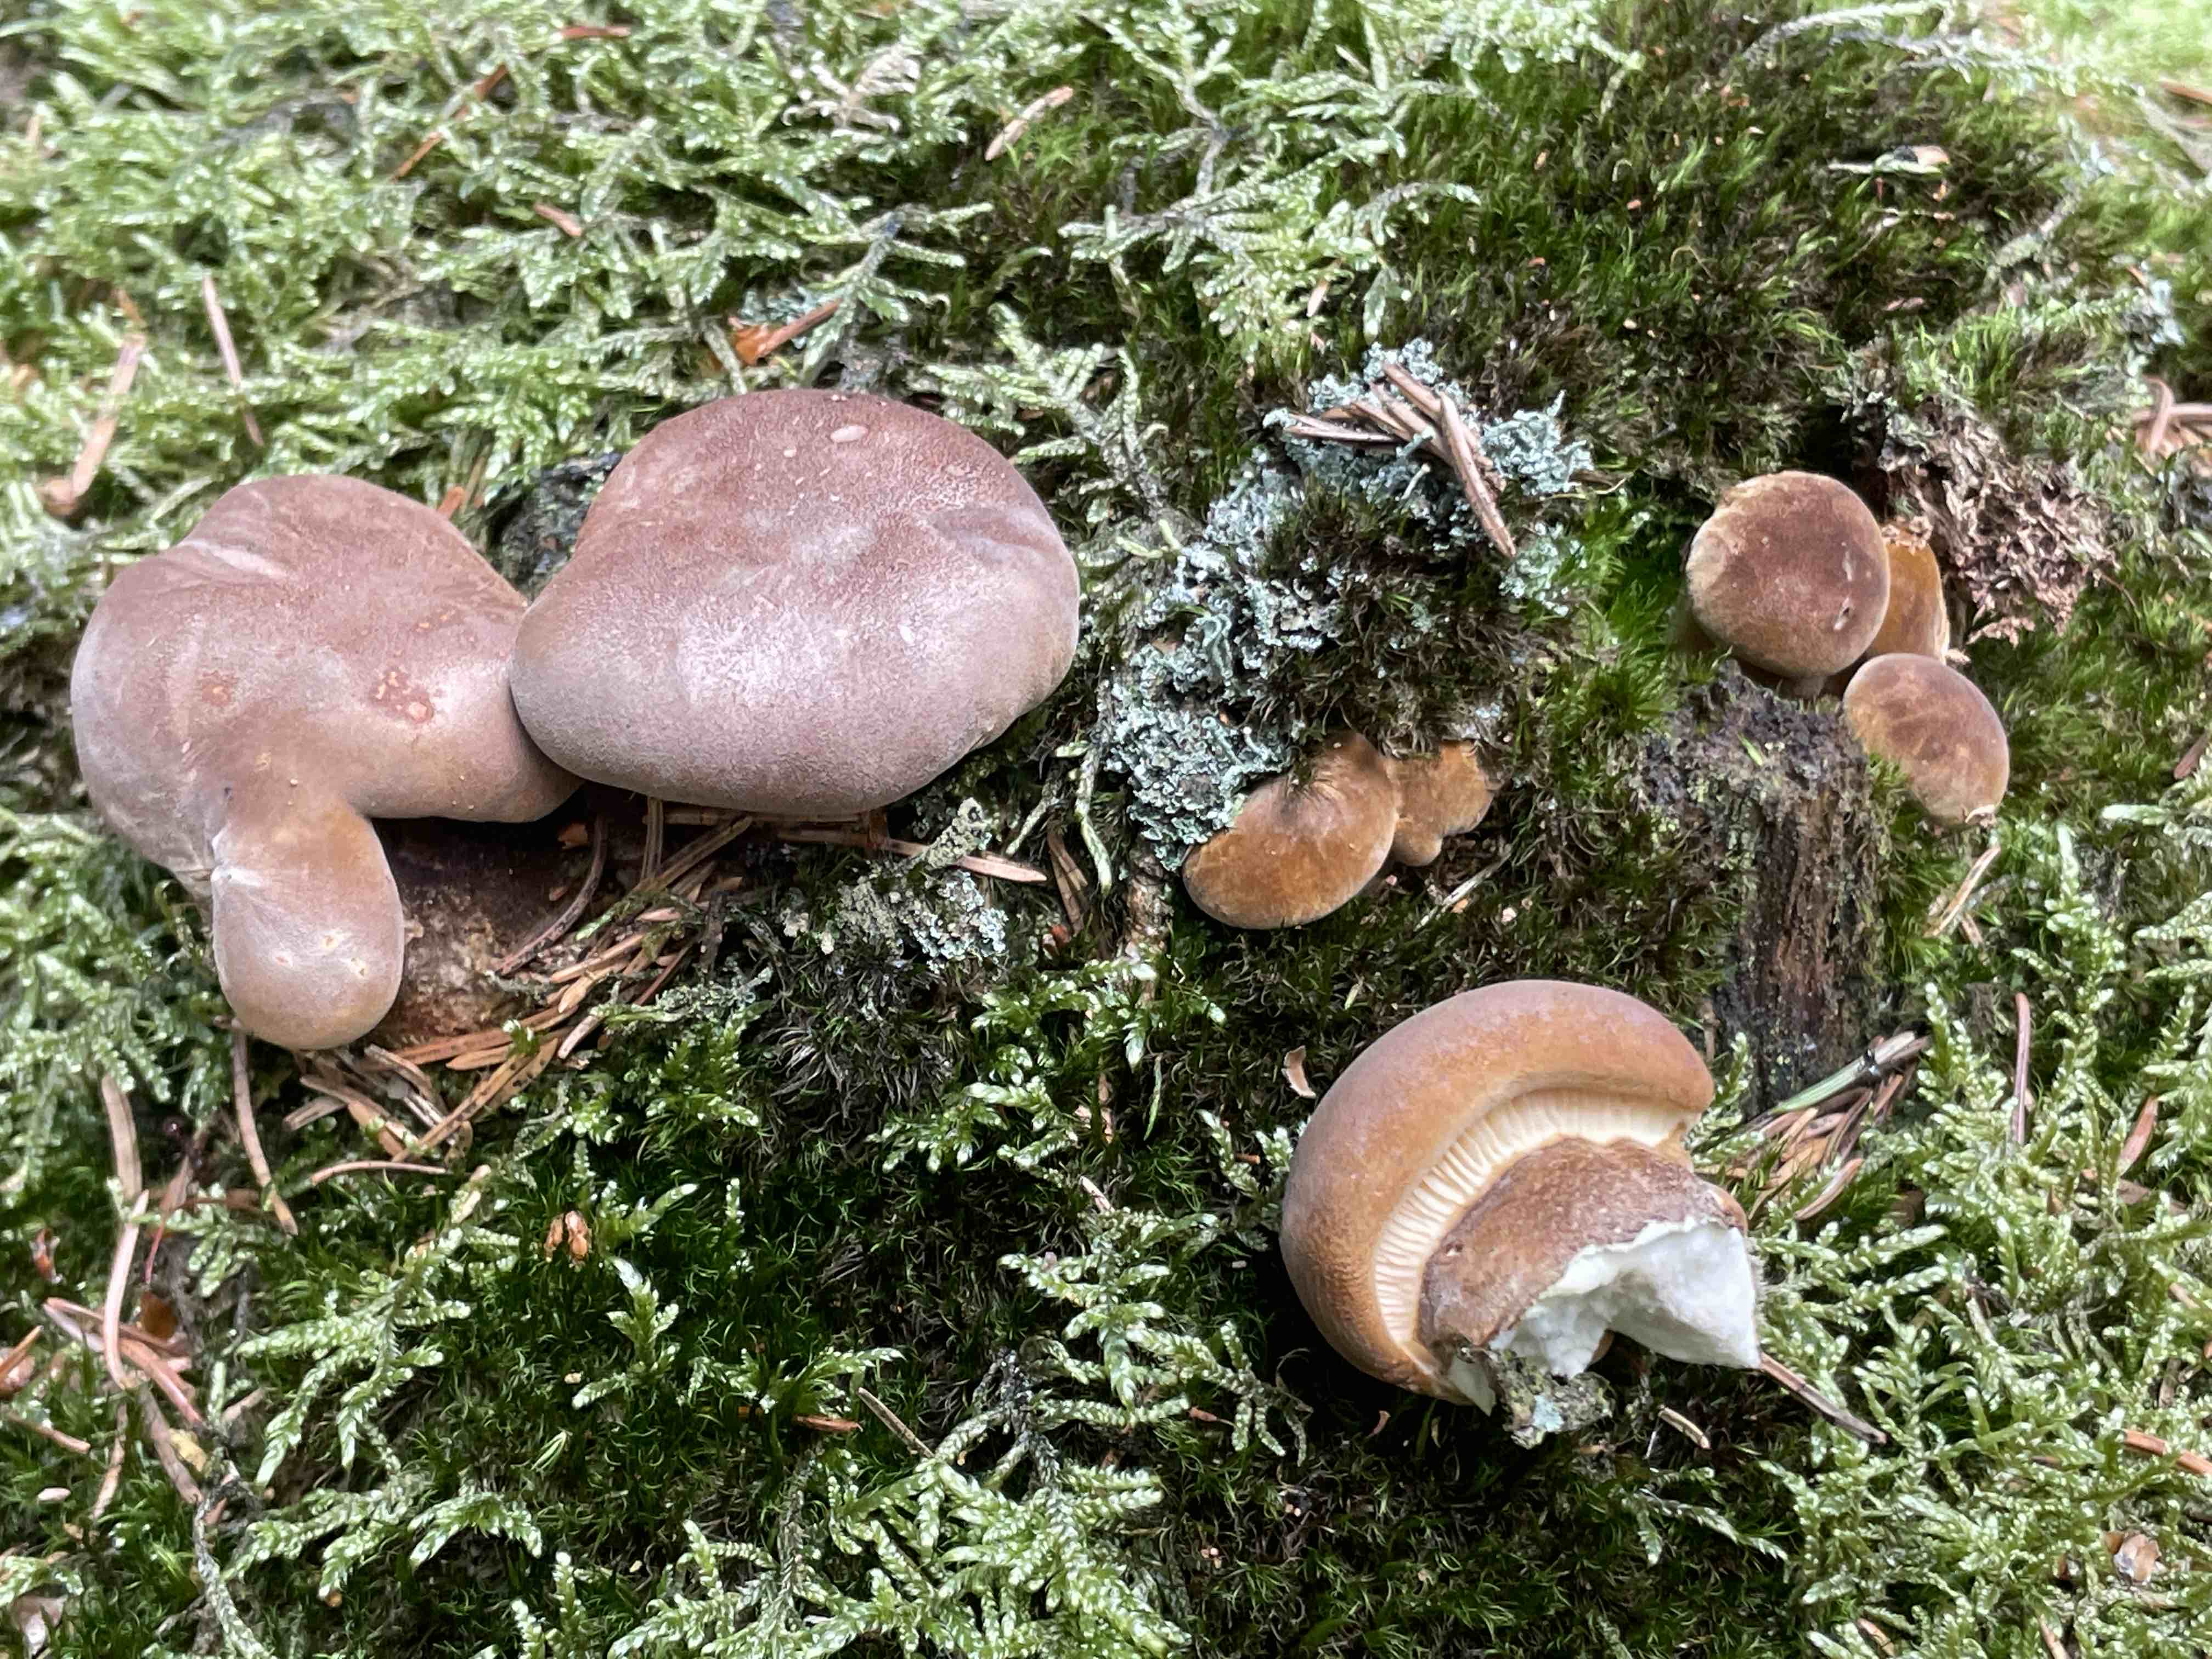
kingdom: Fungi
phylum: Basidiomycota
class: Agaricomycetes
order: Boletales
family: Tapinellaceae
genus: Tapinella
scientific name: Tapinella atrotomentosa
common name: sortfiltet viftesvamp
